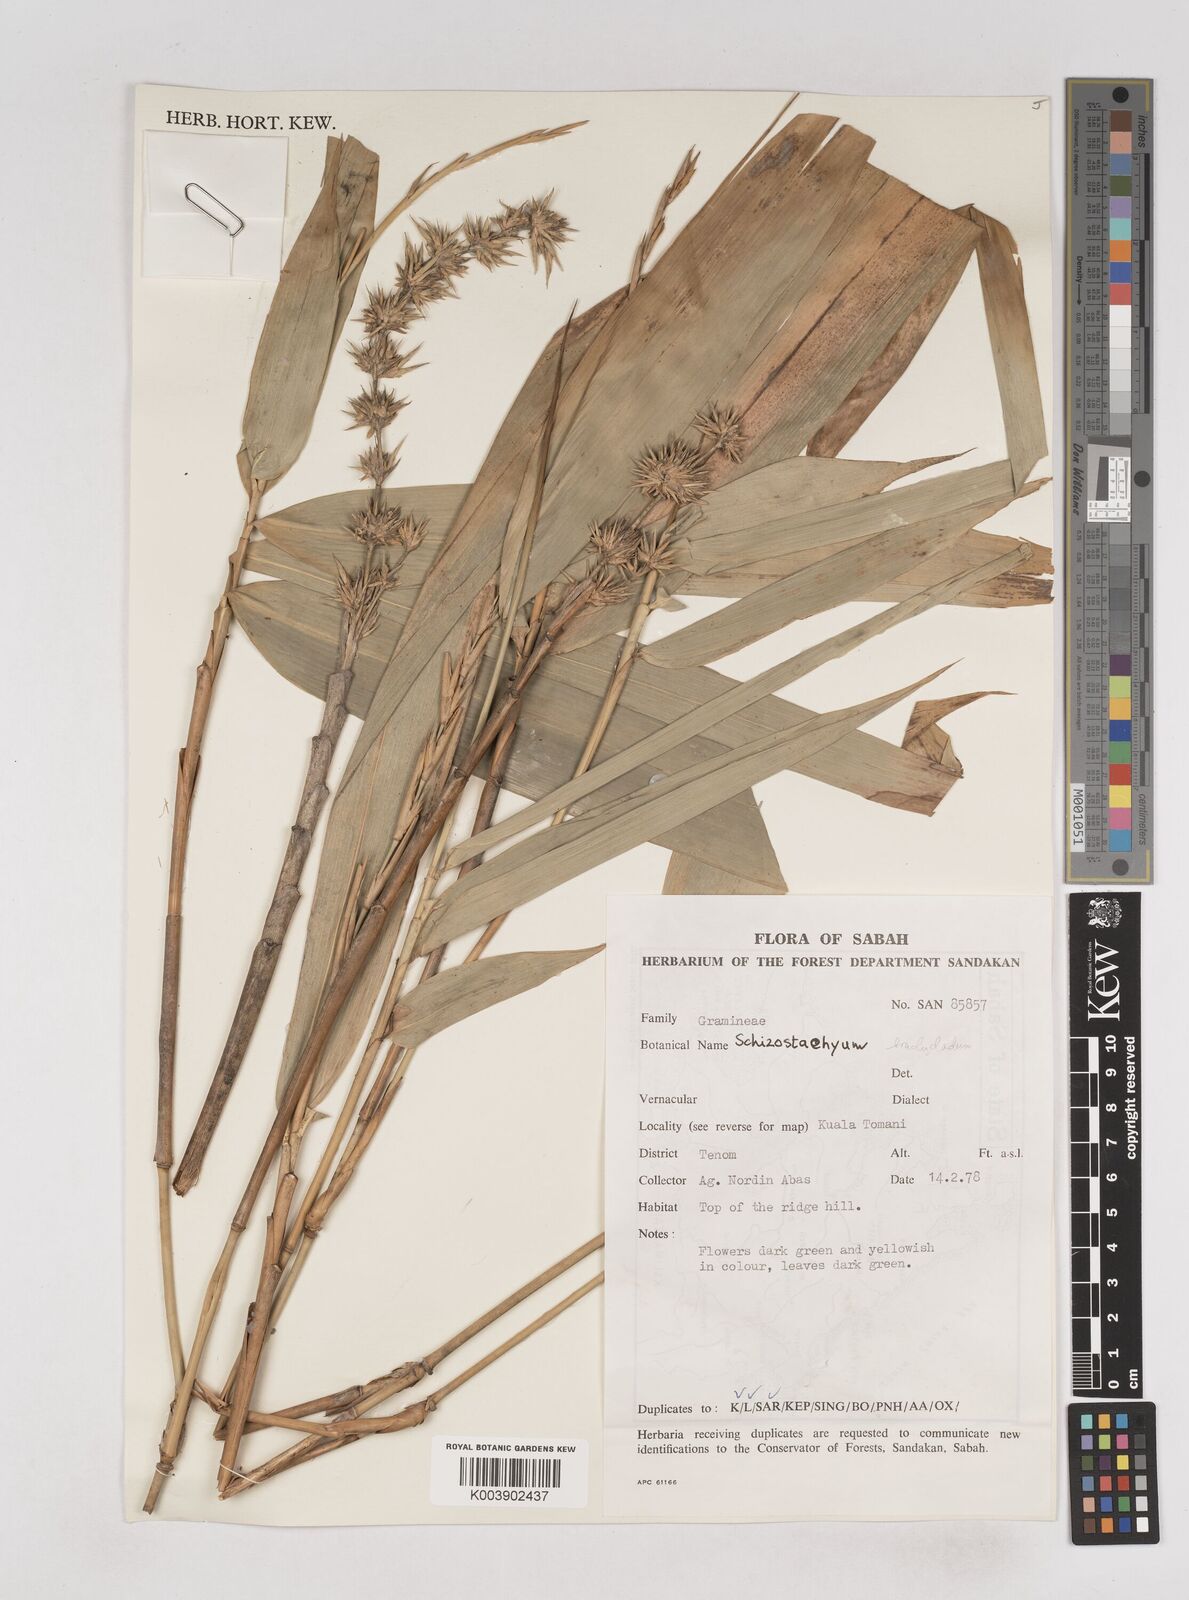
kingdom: Plantae
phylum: Tracheophyta
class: Liliopsida
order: Poales
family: Poaceae
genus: Schizostachyum
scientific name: Schizostachyum
